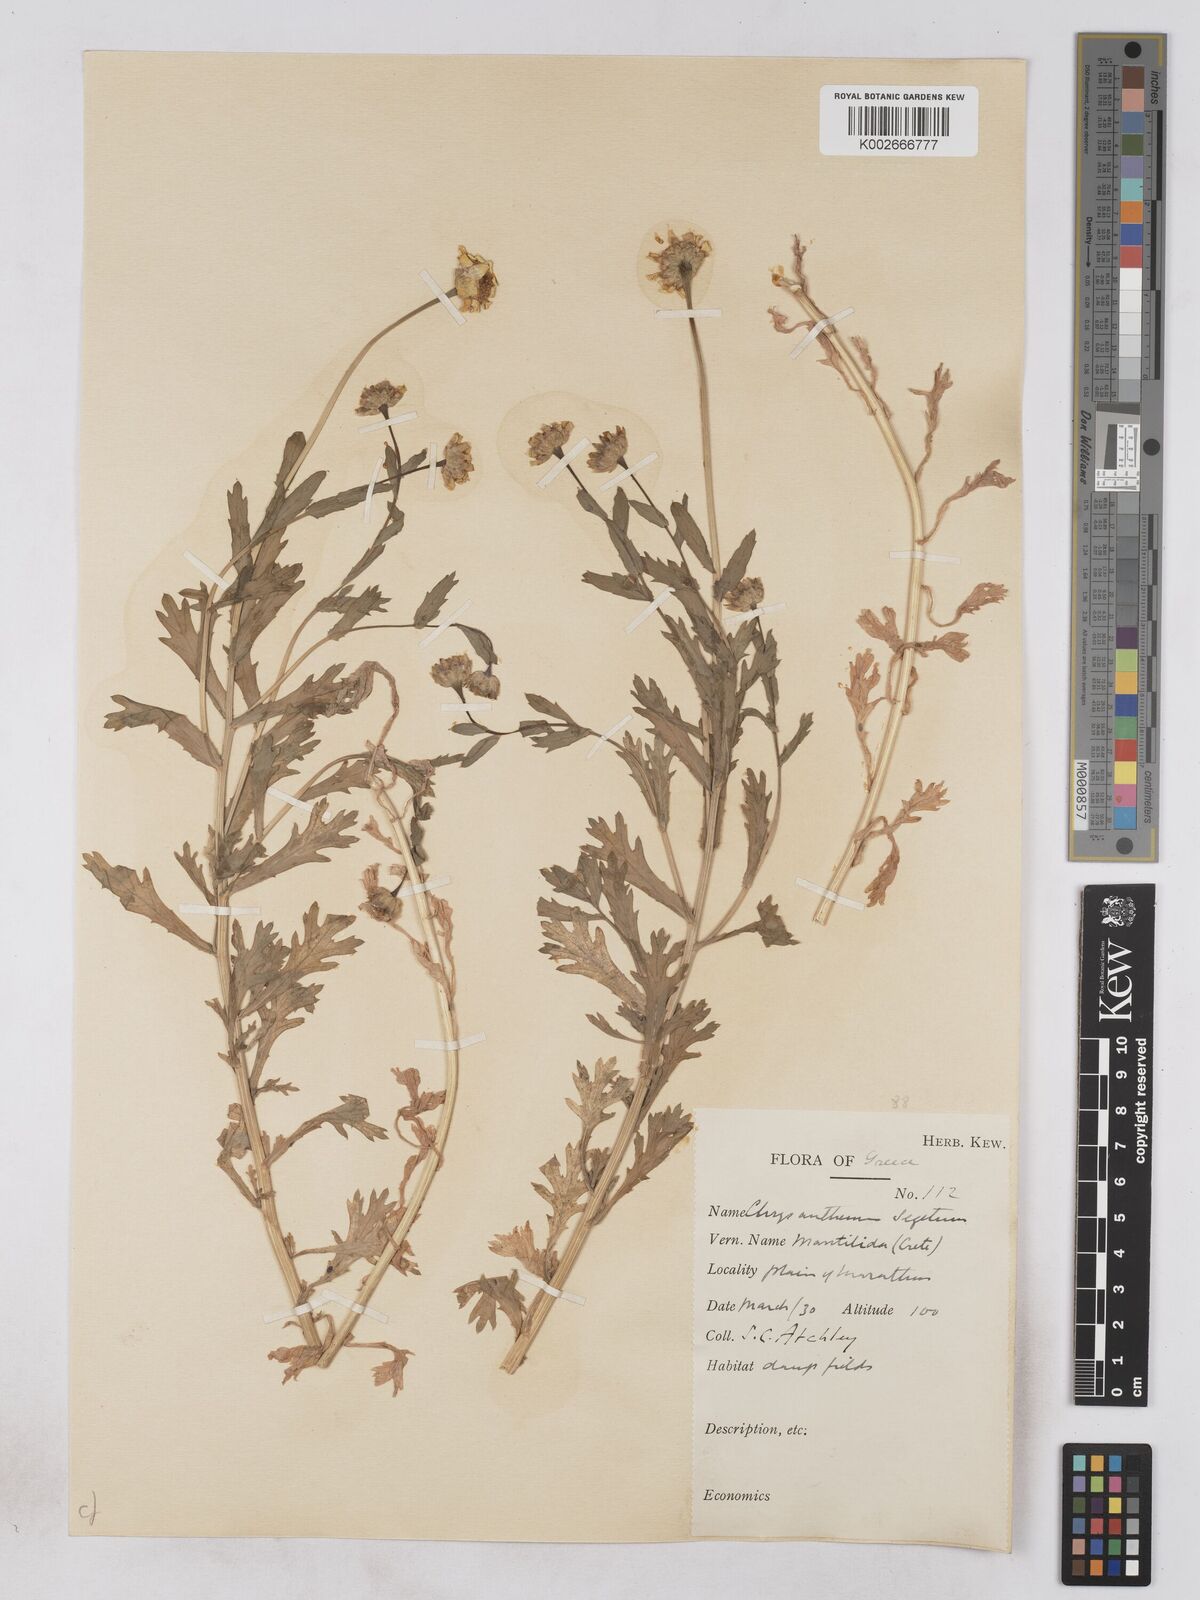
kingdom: Plantae
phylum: Tracheophyta
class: Magnoliopsida
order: Asterales
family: Asteraceae
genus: Glebionis
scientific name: Glebionis segetum
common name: Corndaisy
